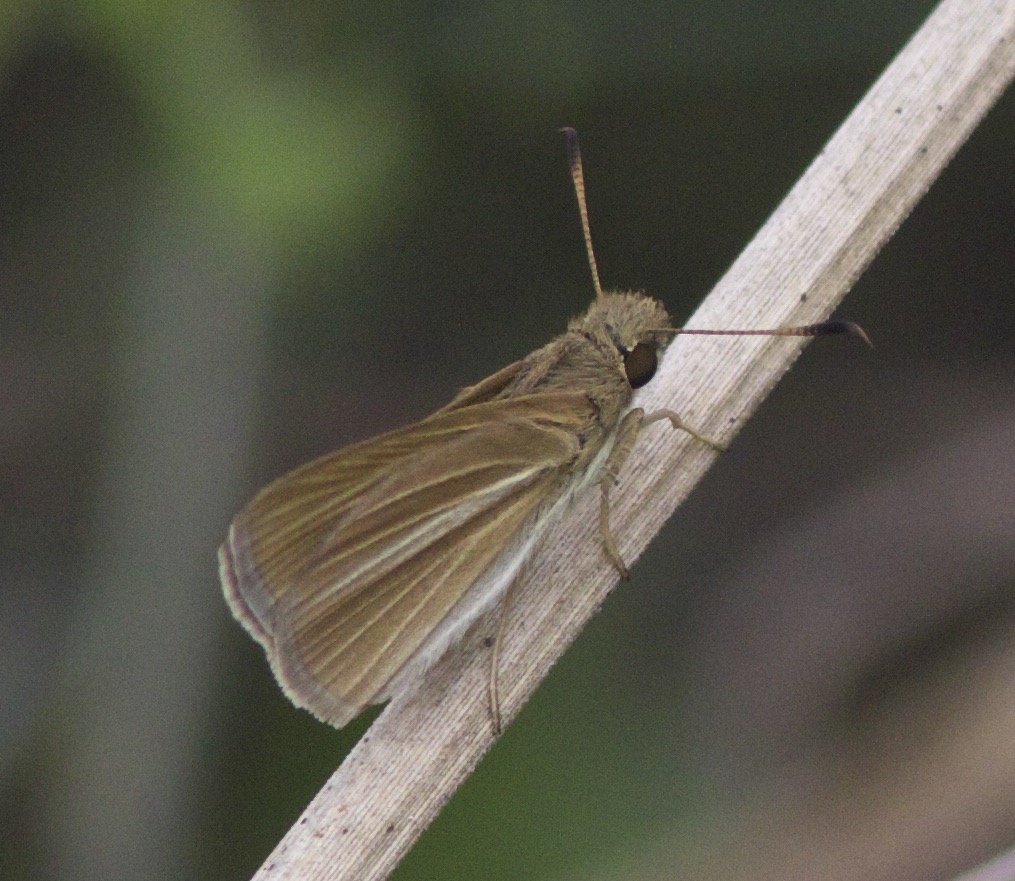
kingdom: Animalia
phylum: Arthropoda
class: Insecta
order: Lepidoptera
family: Hesperiidae
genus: Vidius
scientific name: Vidius perigenes
